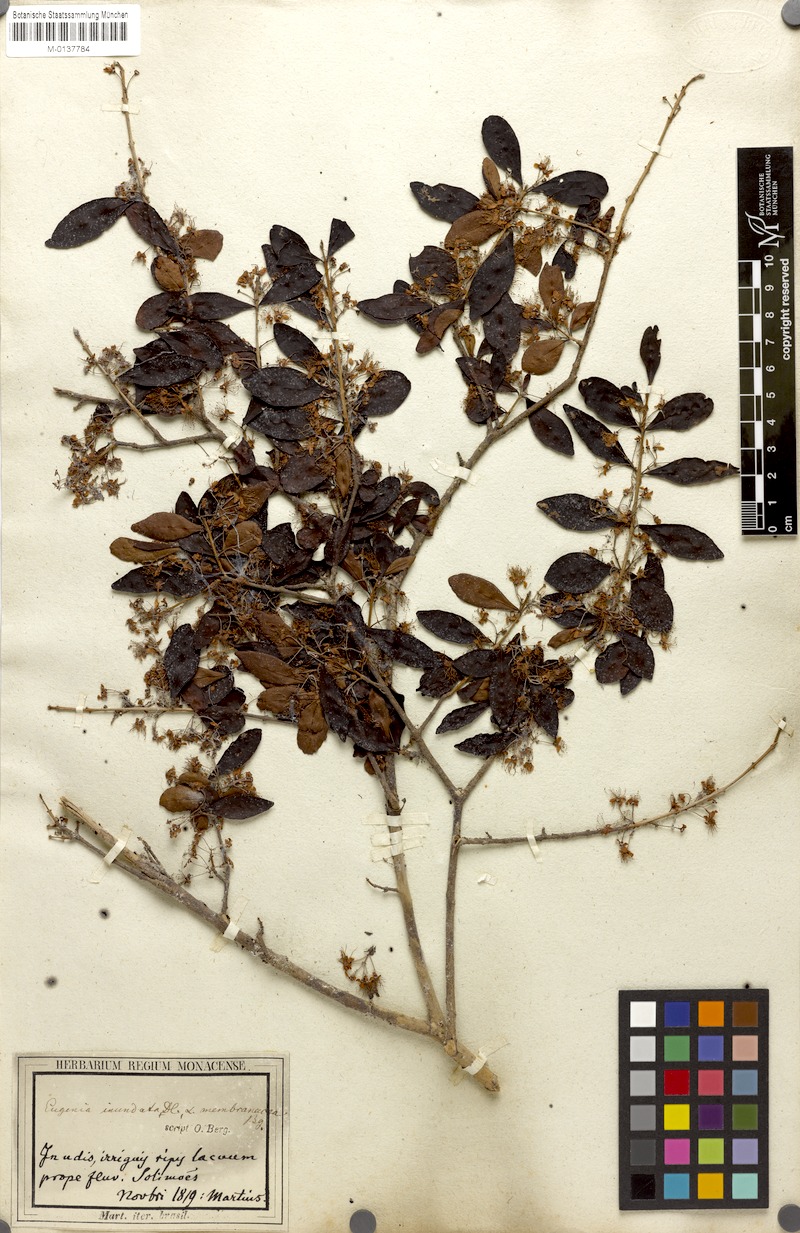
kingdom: Plantae
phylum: Tracheophyta
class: Magnoliopsida
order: Myrtales
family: Myrtaceae
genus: Eugenia
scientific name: Eugenia inundata
